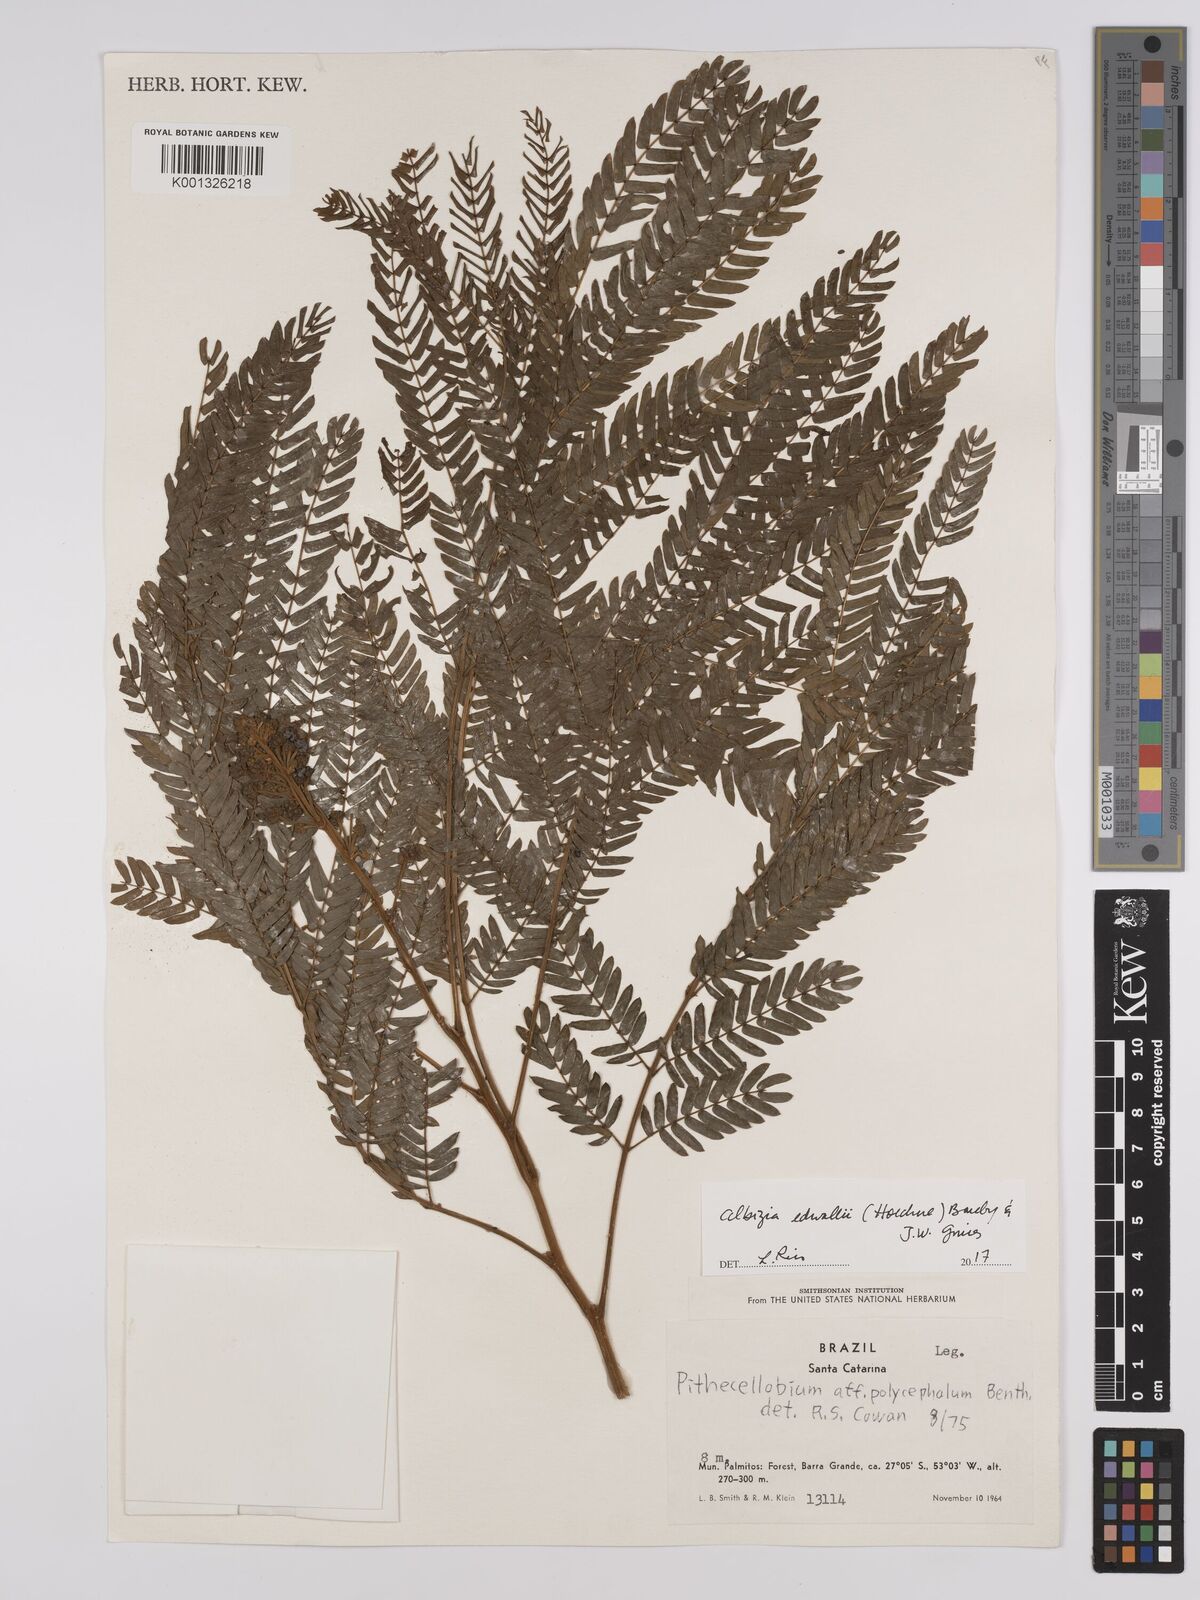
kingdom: Plantae
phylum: Tracheophyta
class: Magnoliopsida
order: Fabales
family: Fabaceae
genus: Albizia
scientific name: Albizia edwallii
